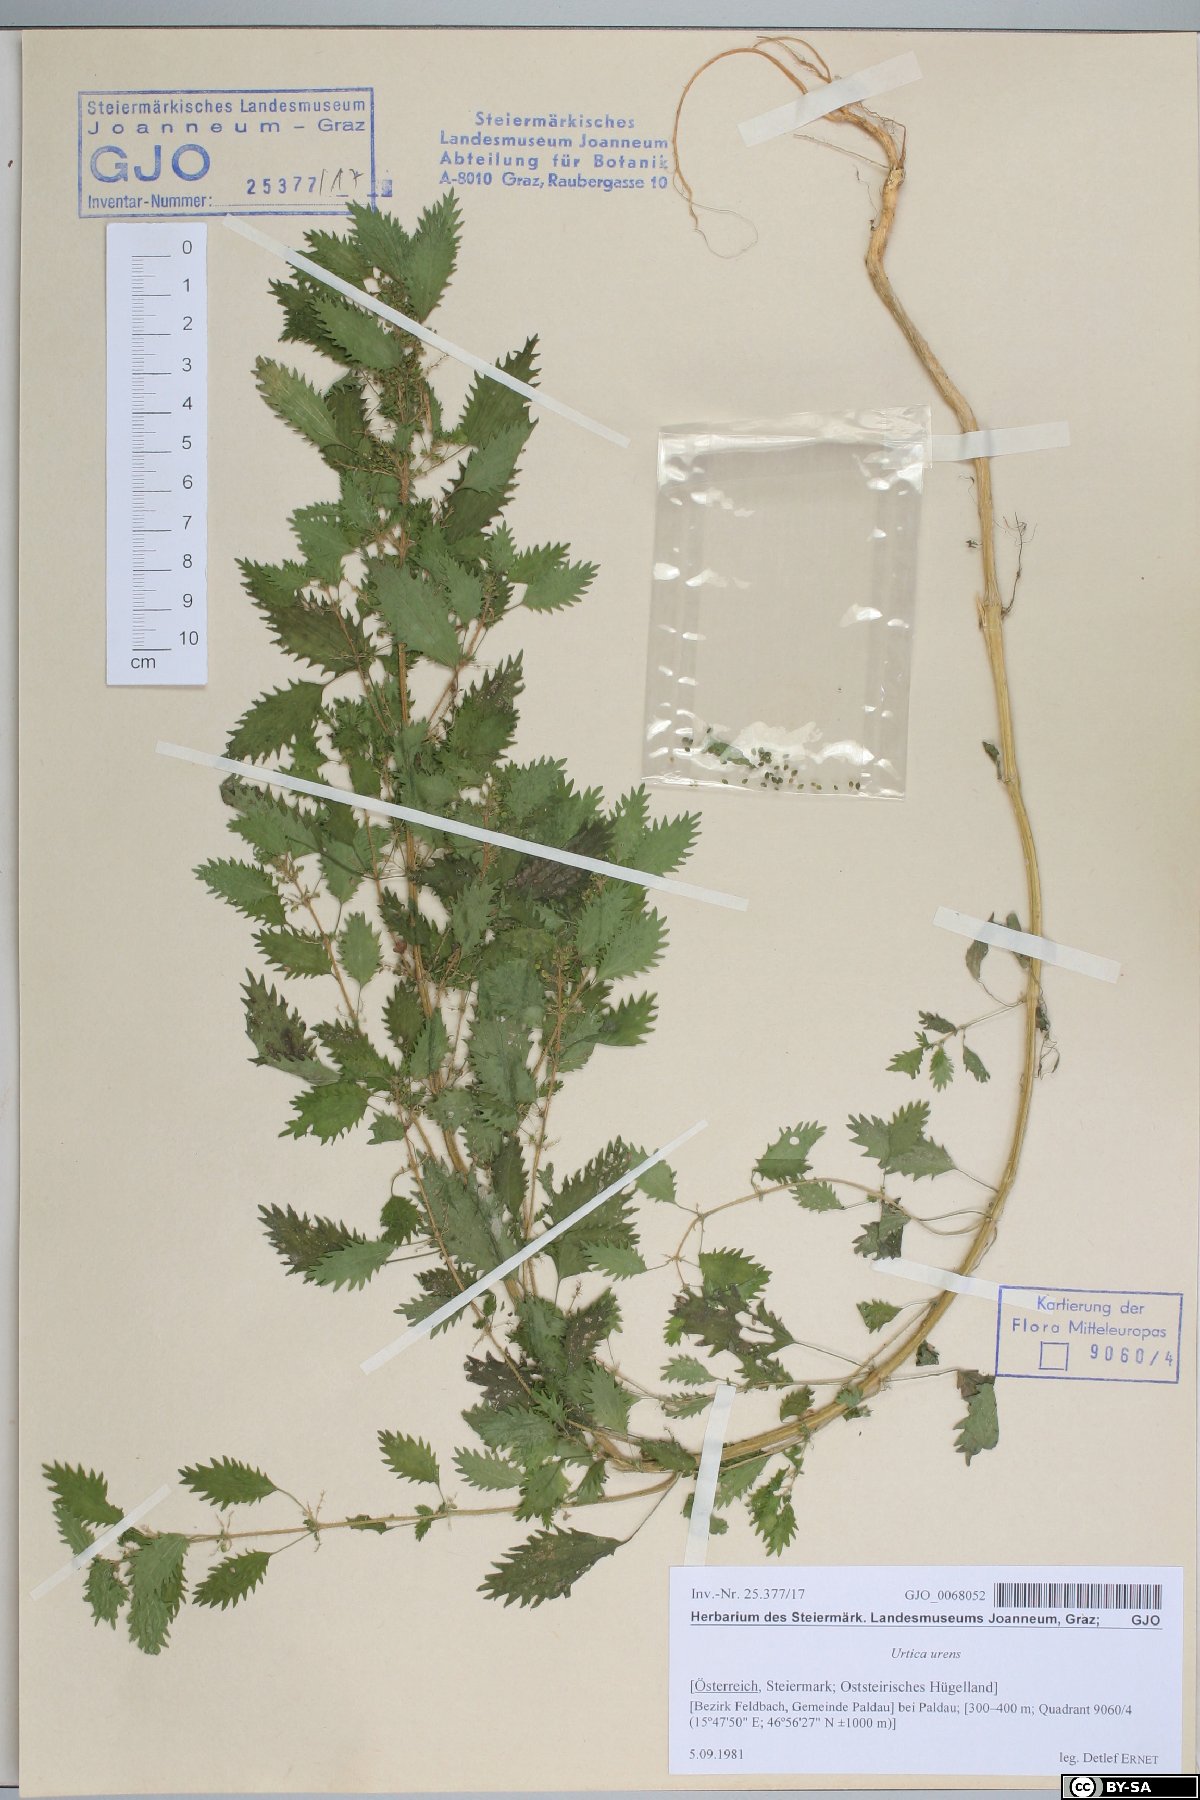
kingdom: Plantae
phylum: Tracheophyta
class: Magnoliopsida
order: Rosales
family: Urticaceae
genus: Urtica
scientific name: Urtica urens
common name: Dwarf nettle
